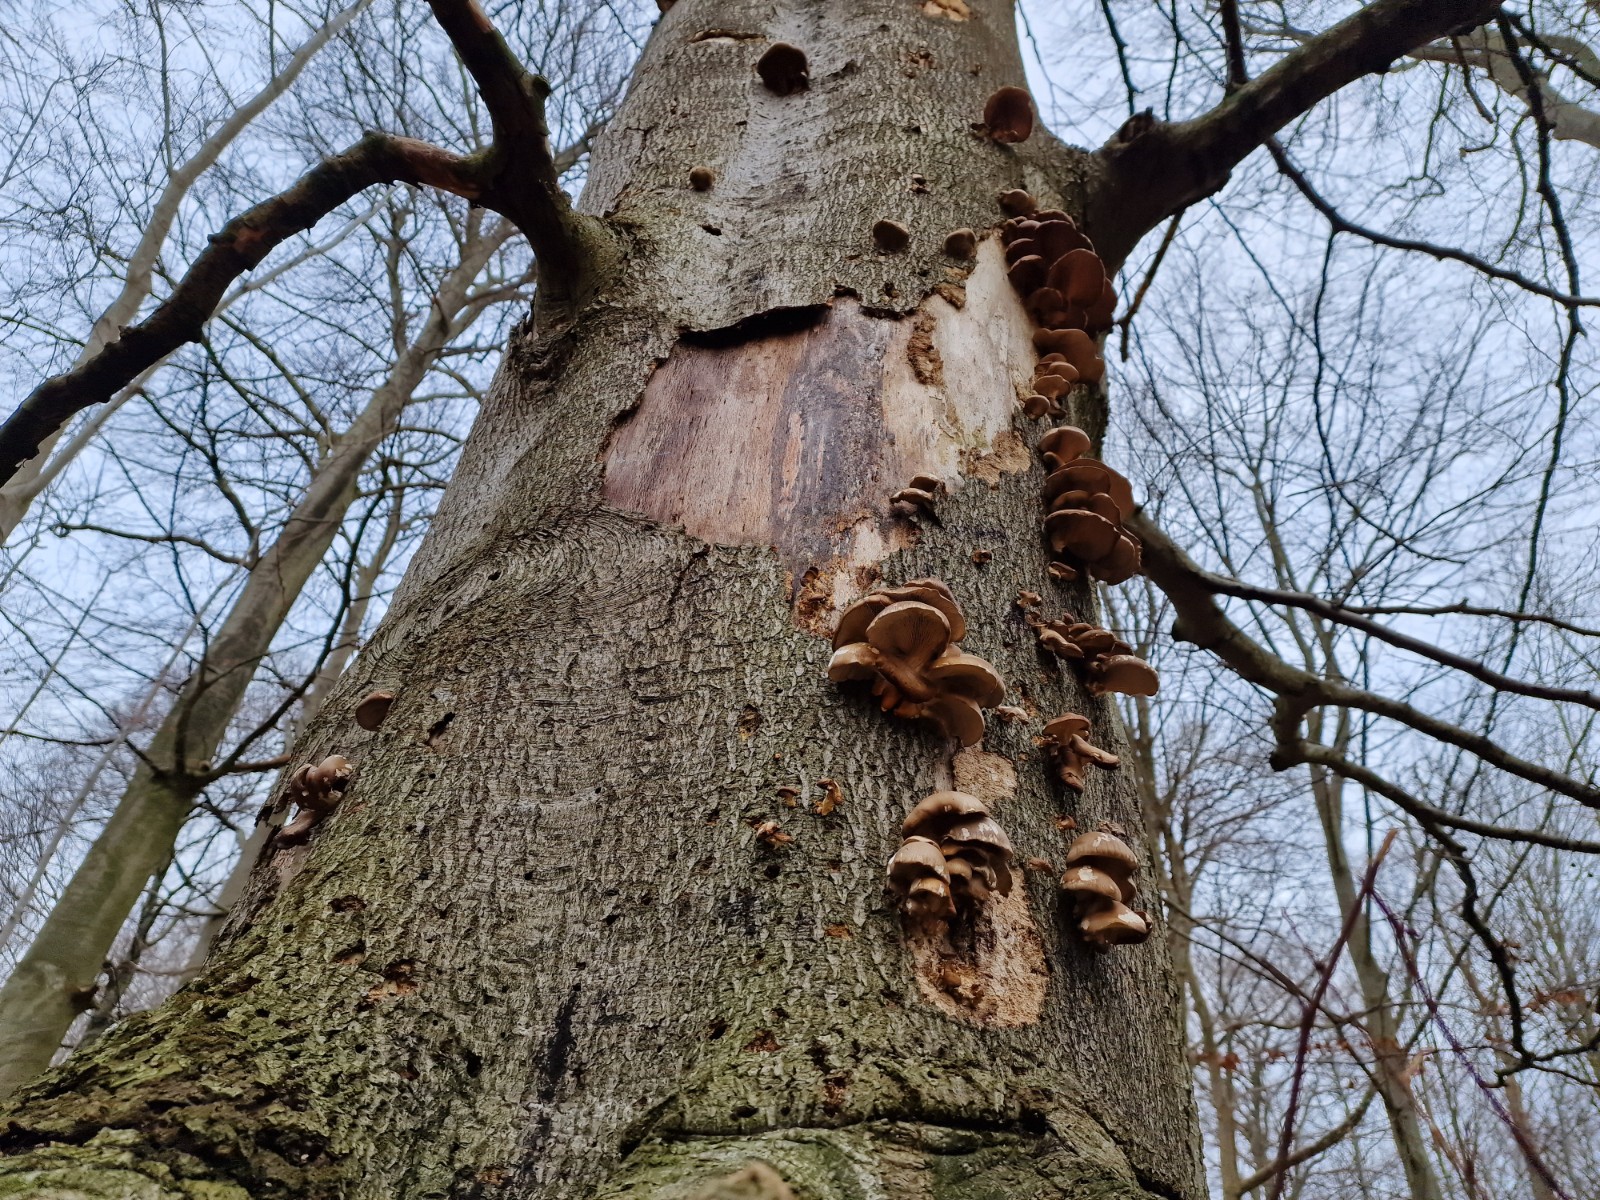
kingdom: Fungi
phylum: Basidiomycota
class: Agaricomycetes
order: Agaricales
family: Pleurotaceae
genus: Pleurotus
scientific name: Pleurotus ostreatus
